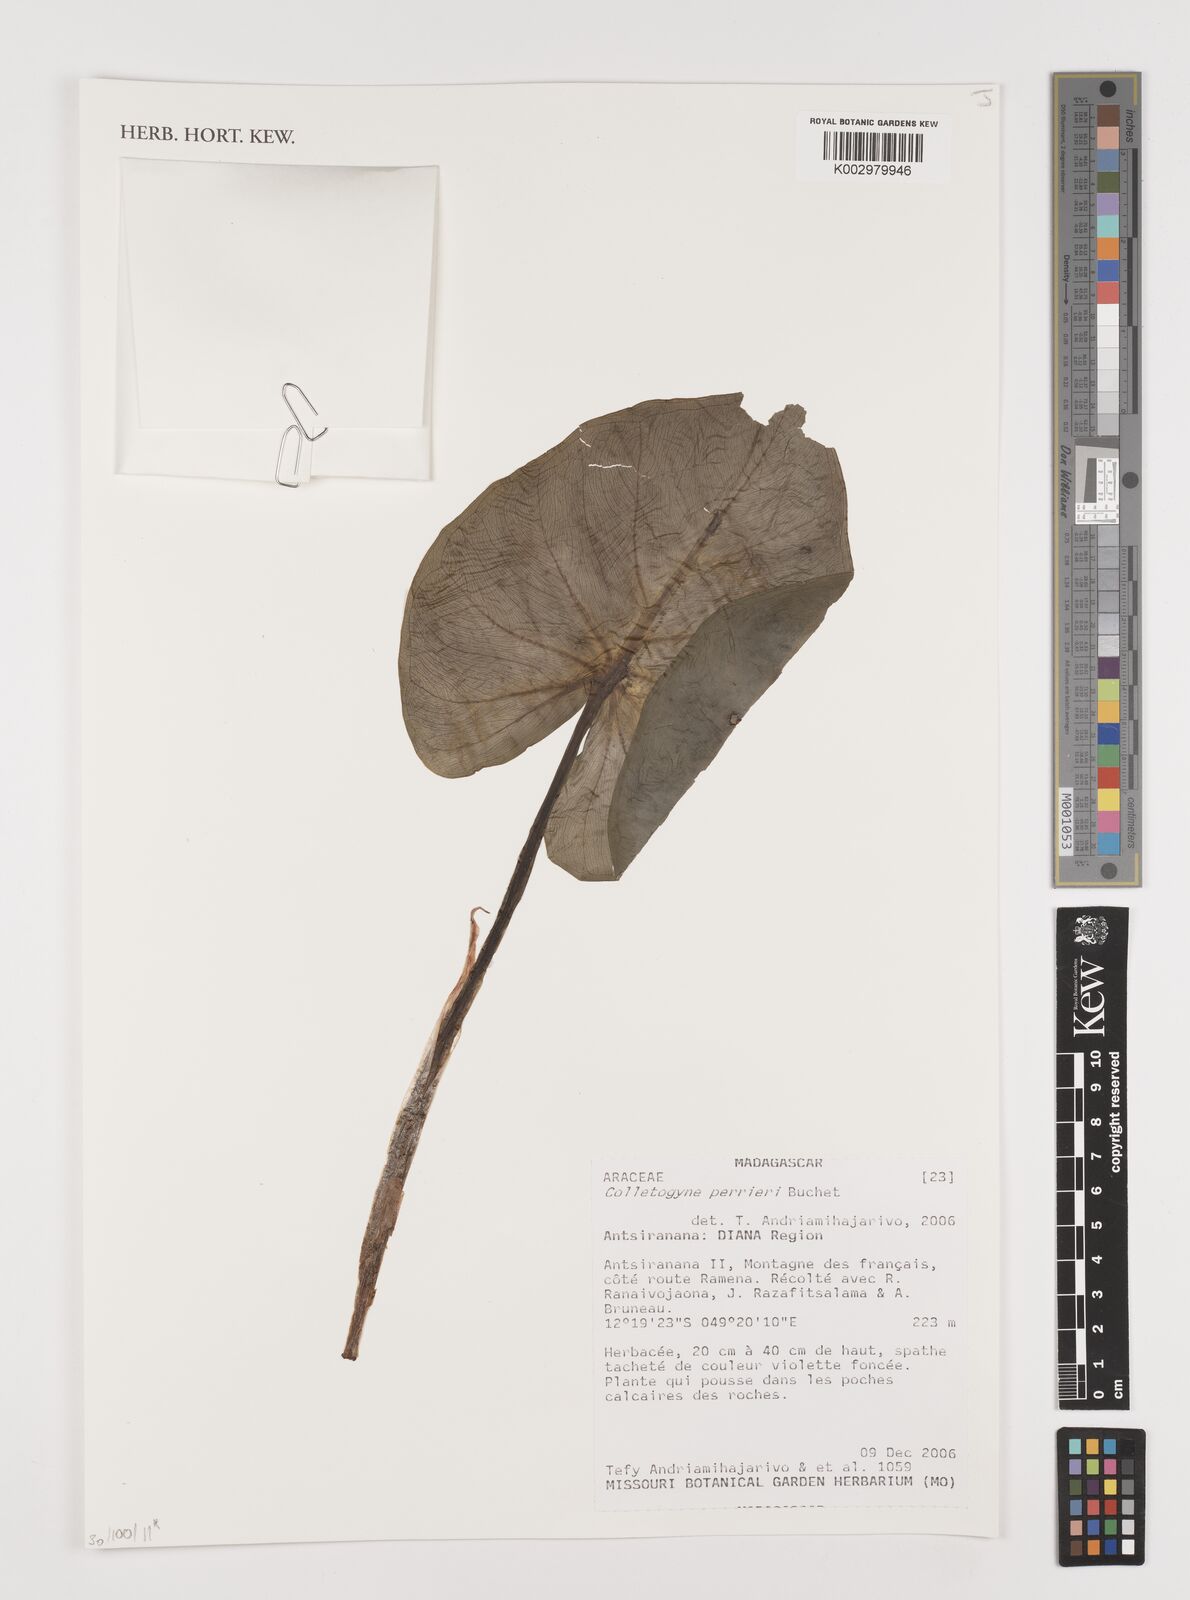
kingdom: Plantae
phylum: Tracheophyta
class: Liliopsida
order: Alismatales
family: Araceae
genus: Colletogyne
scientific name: Colletogyne perrieri
